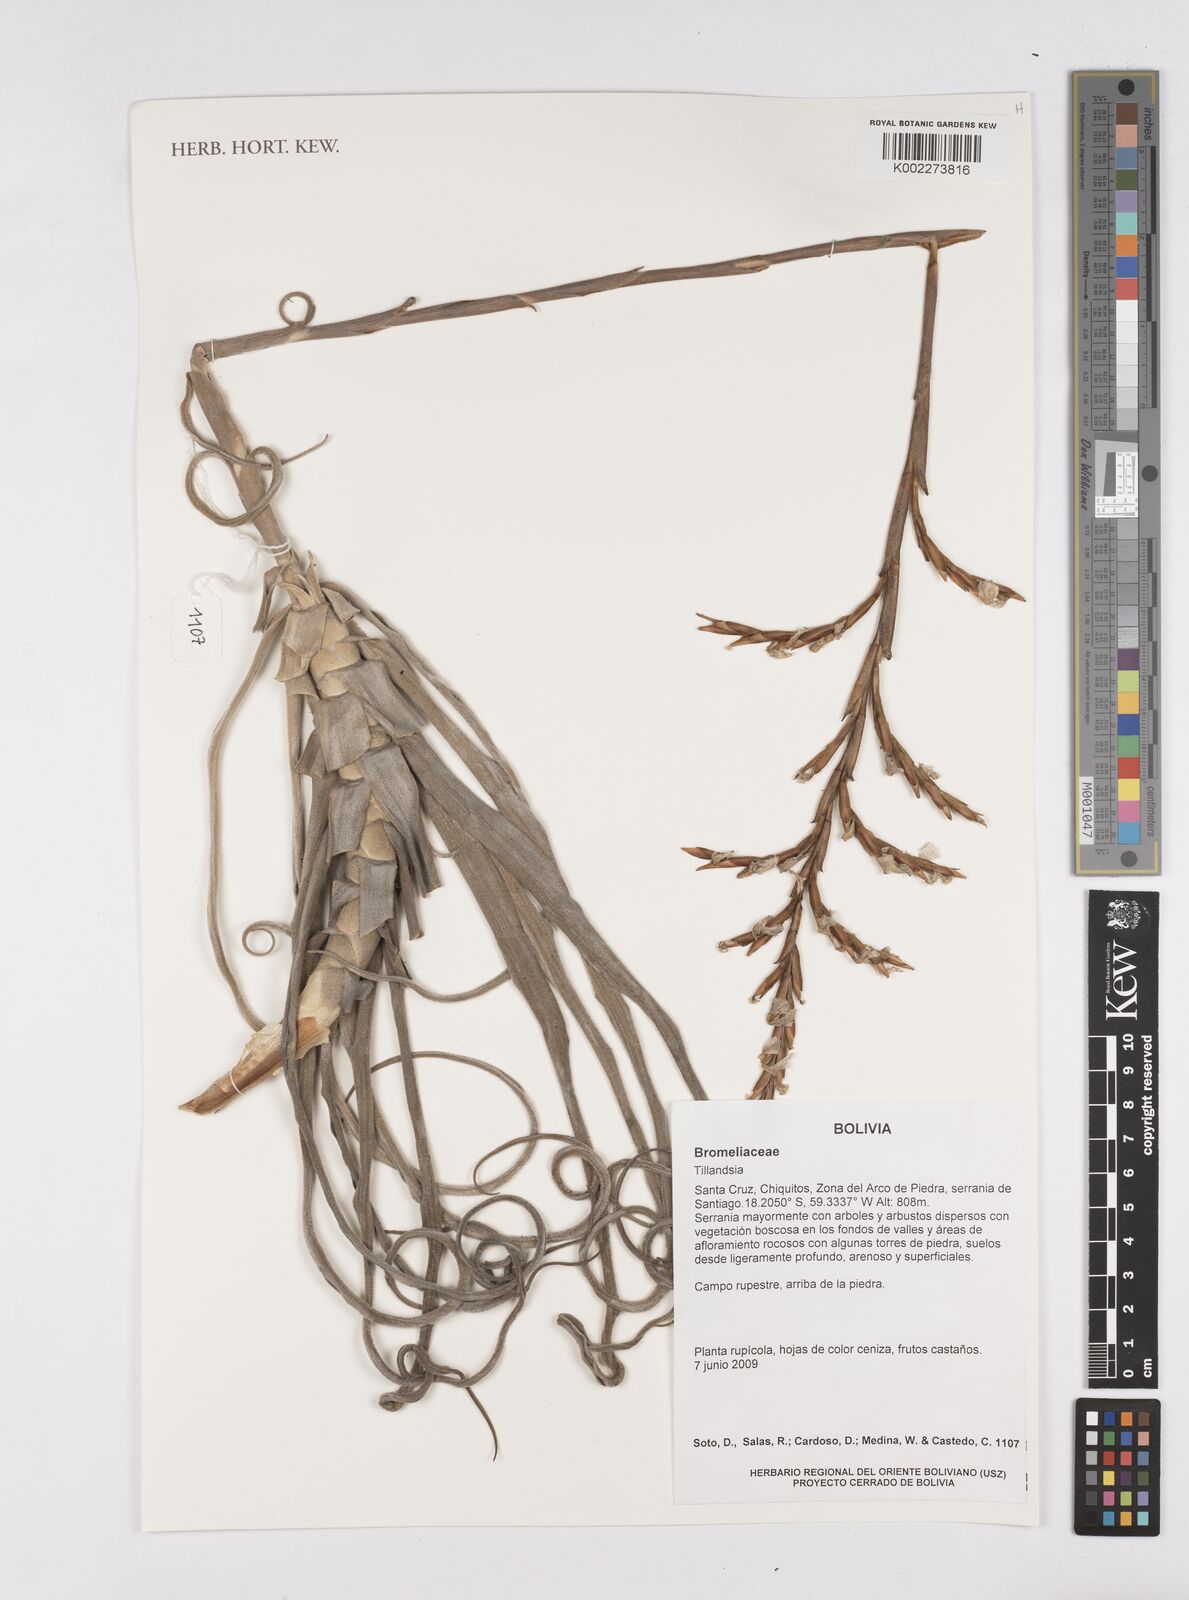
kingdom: Plantae
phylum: Tracheophyta
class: Liliopsida
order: Poales
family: Bromeliaceae
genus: Tillandsia
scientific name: Tillandsia
